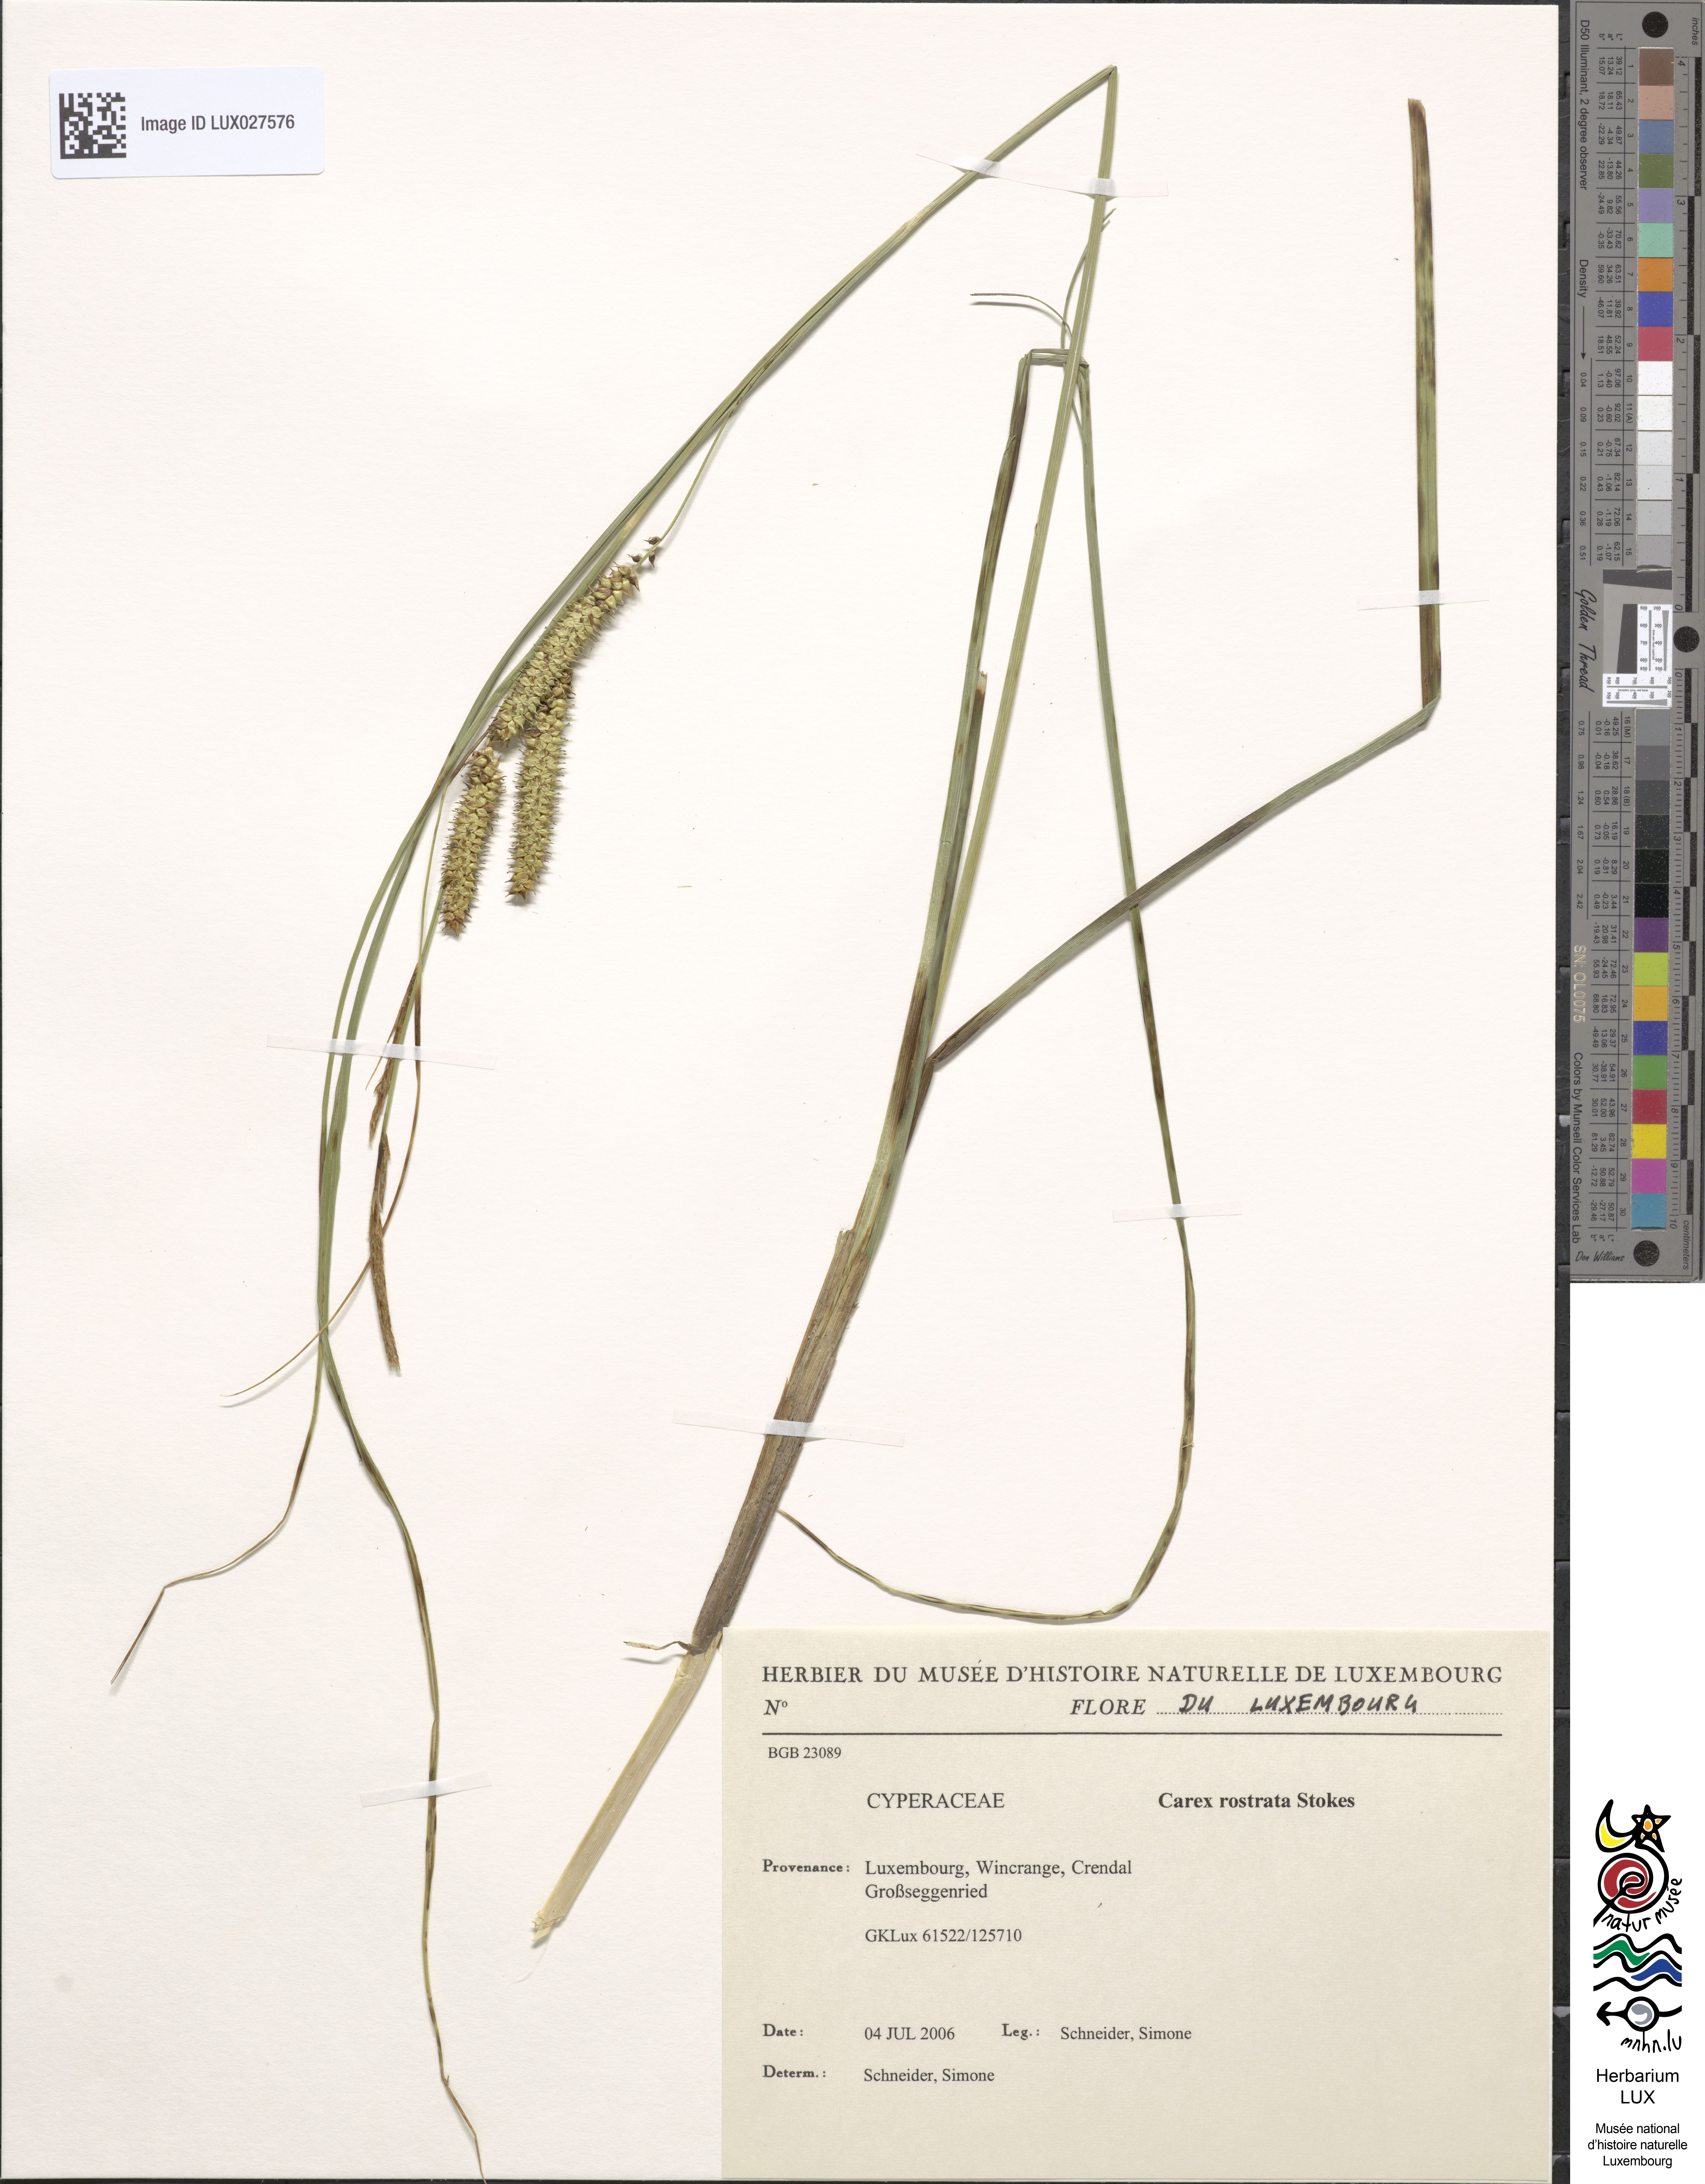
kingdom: Plantae
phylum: Tracheophyta
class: Liliopsida
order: Poales
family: Cyperaceae
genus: Carex
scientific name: Carex rostrata
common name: Bottle sedge
